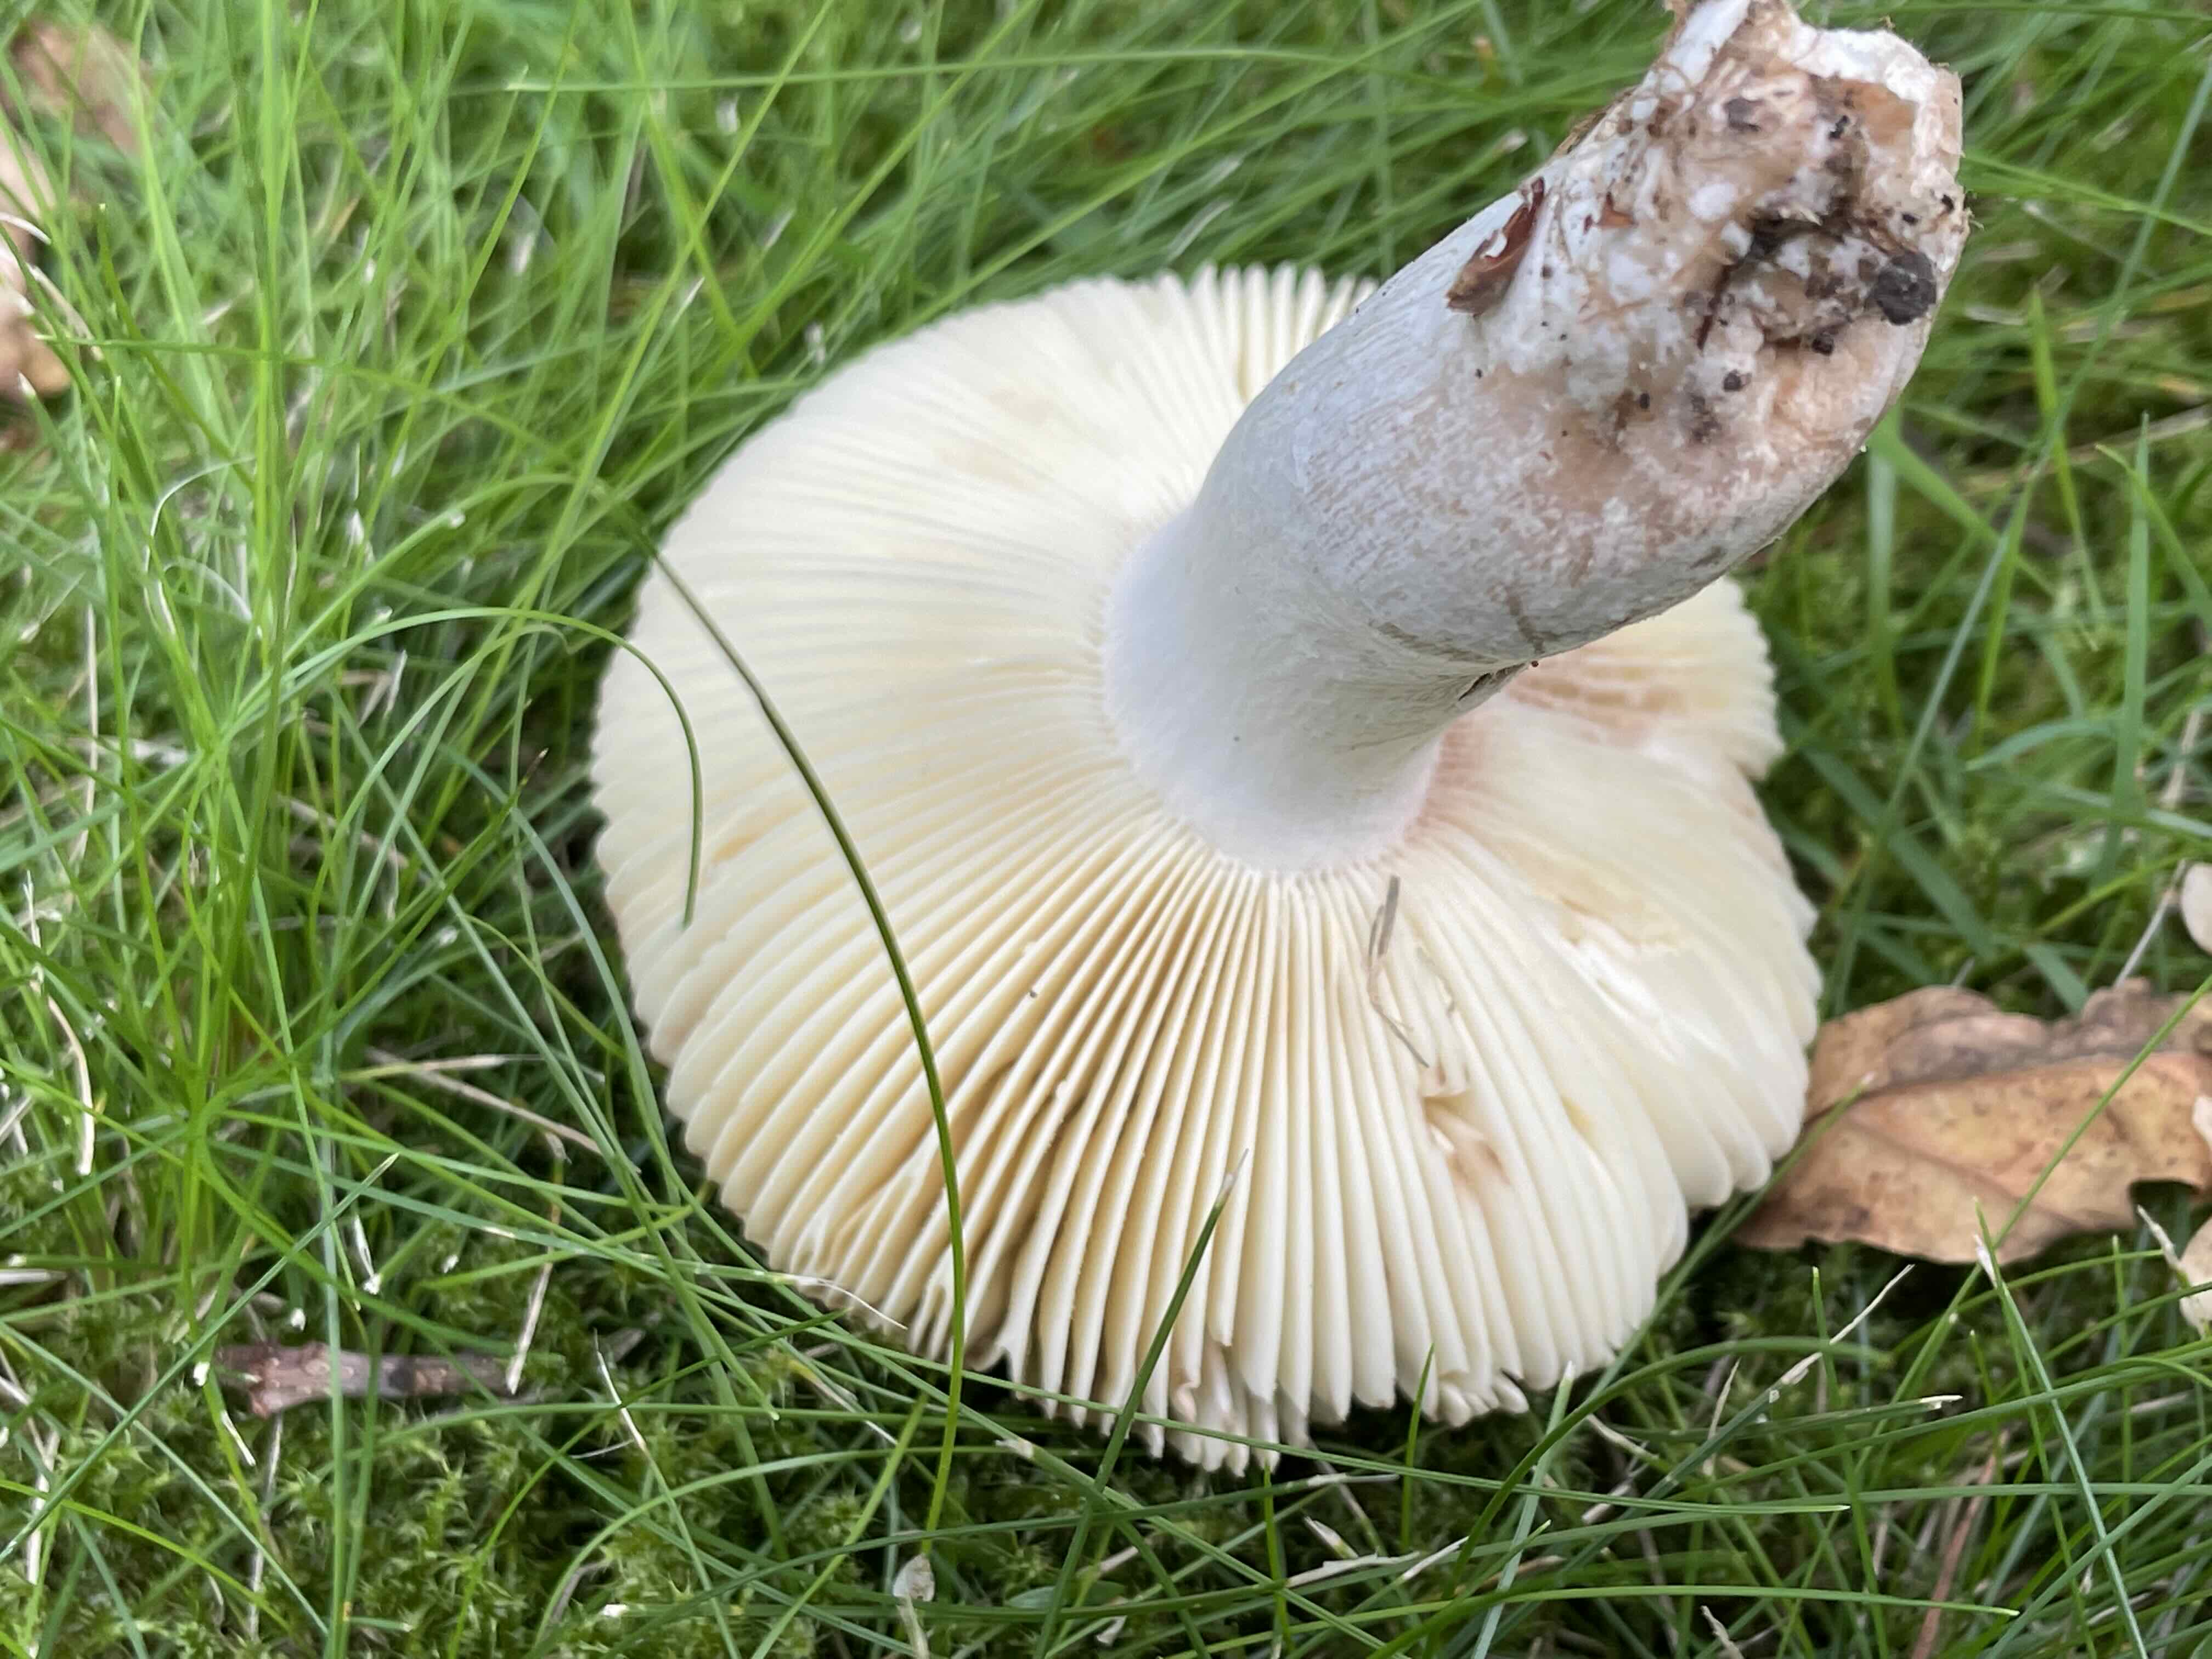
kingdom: Fungi
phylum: Basidiomycota
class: Agaricomycetes
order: Russulales
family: Russulaceae
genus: Russula
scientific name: Russula graveolens
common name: bugtet skørhat
